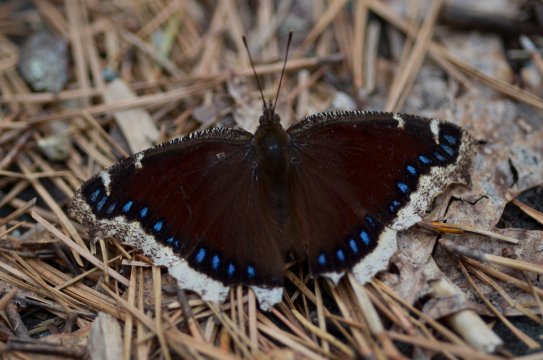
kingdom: Animalia
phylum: Arthropoda
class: Insecta
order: Lepidoptera
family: Nymphalidae
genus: Nymphalis
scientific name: Nymphalis antiopa
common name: Mourning Cloak
